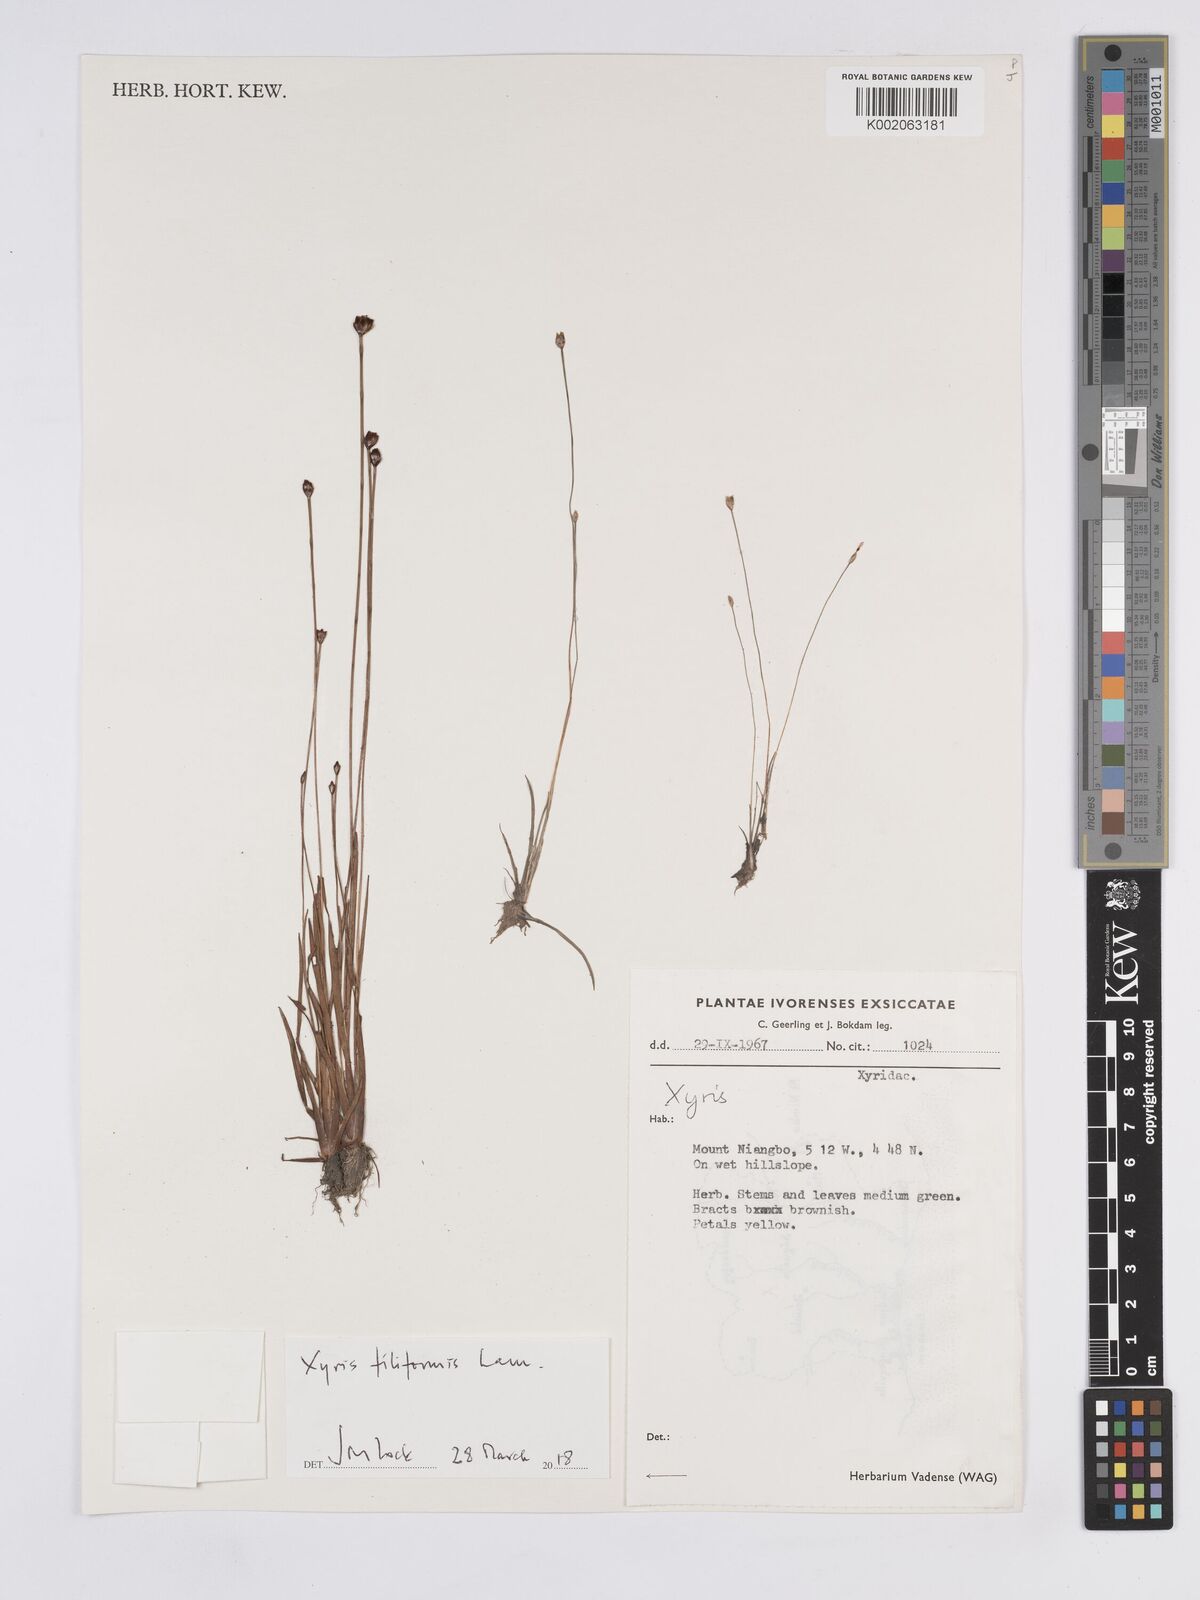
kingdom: Plantae
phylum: Tracheophyta
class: Liliopsida
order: Poales
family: Xyridaceae
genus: Xyris
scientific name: Xyris filiformis
